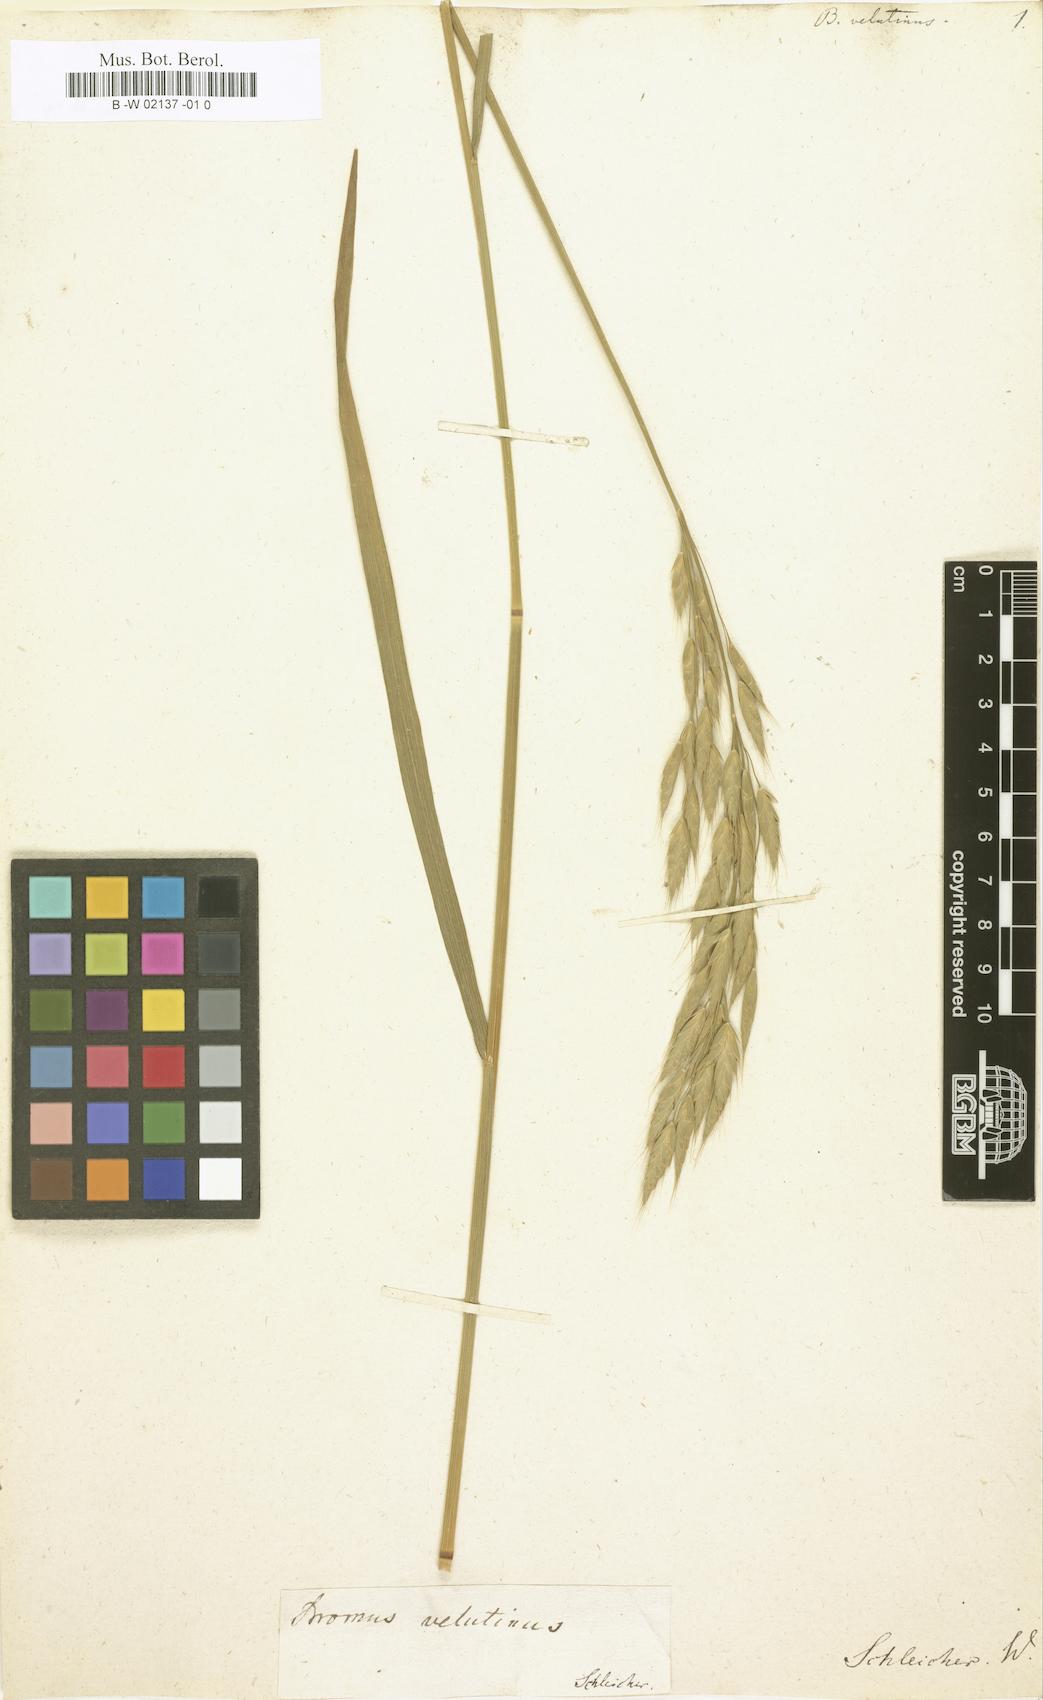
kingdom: Plantae
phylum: Tracheophyta
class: Liliopsida
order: Poales
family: Poaceae
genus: Bromus
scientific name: Bromus grossus
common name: Whiskered brome
